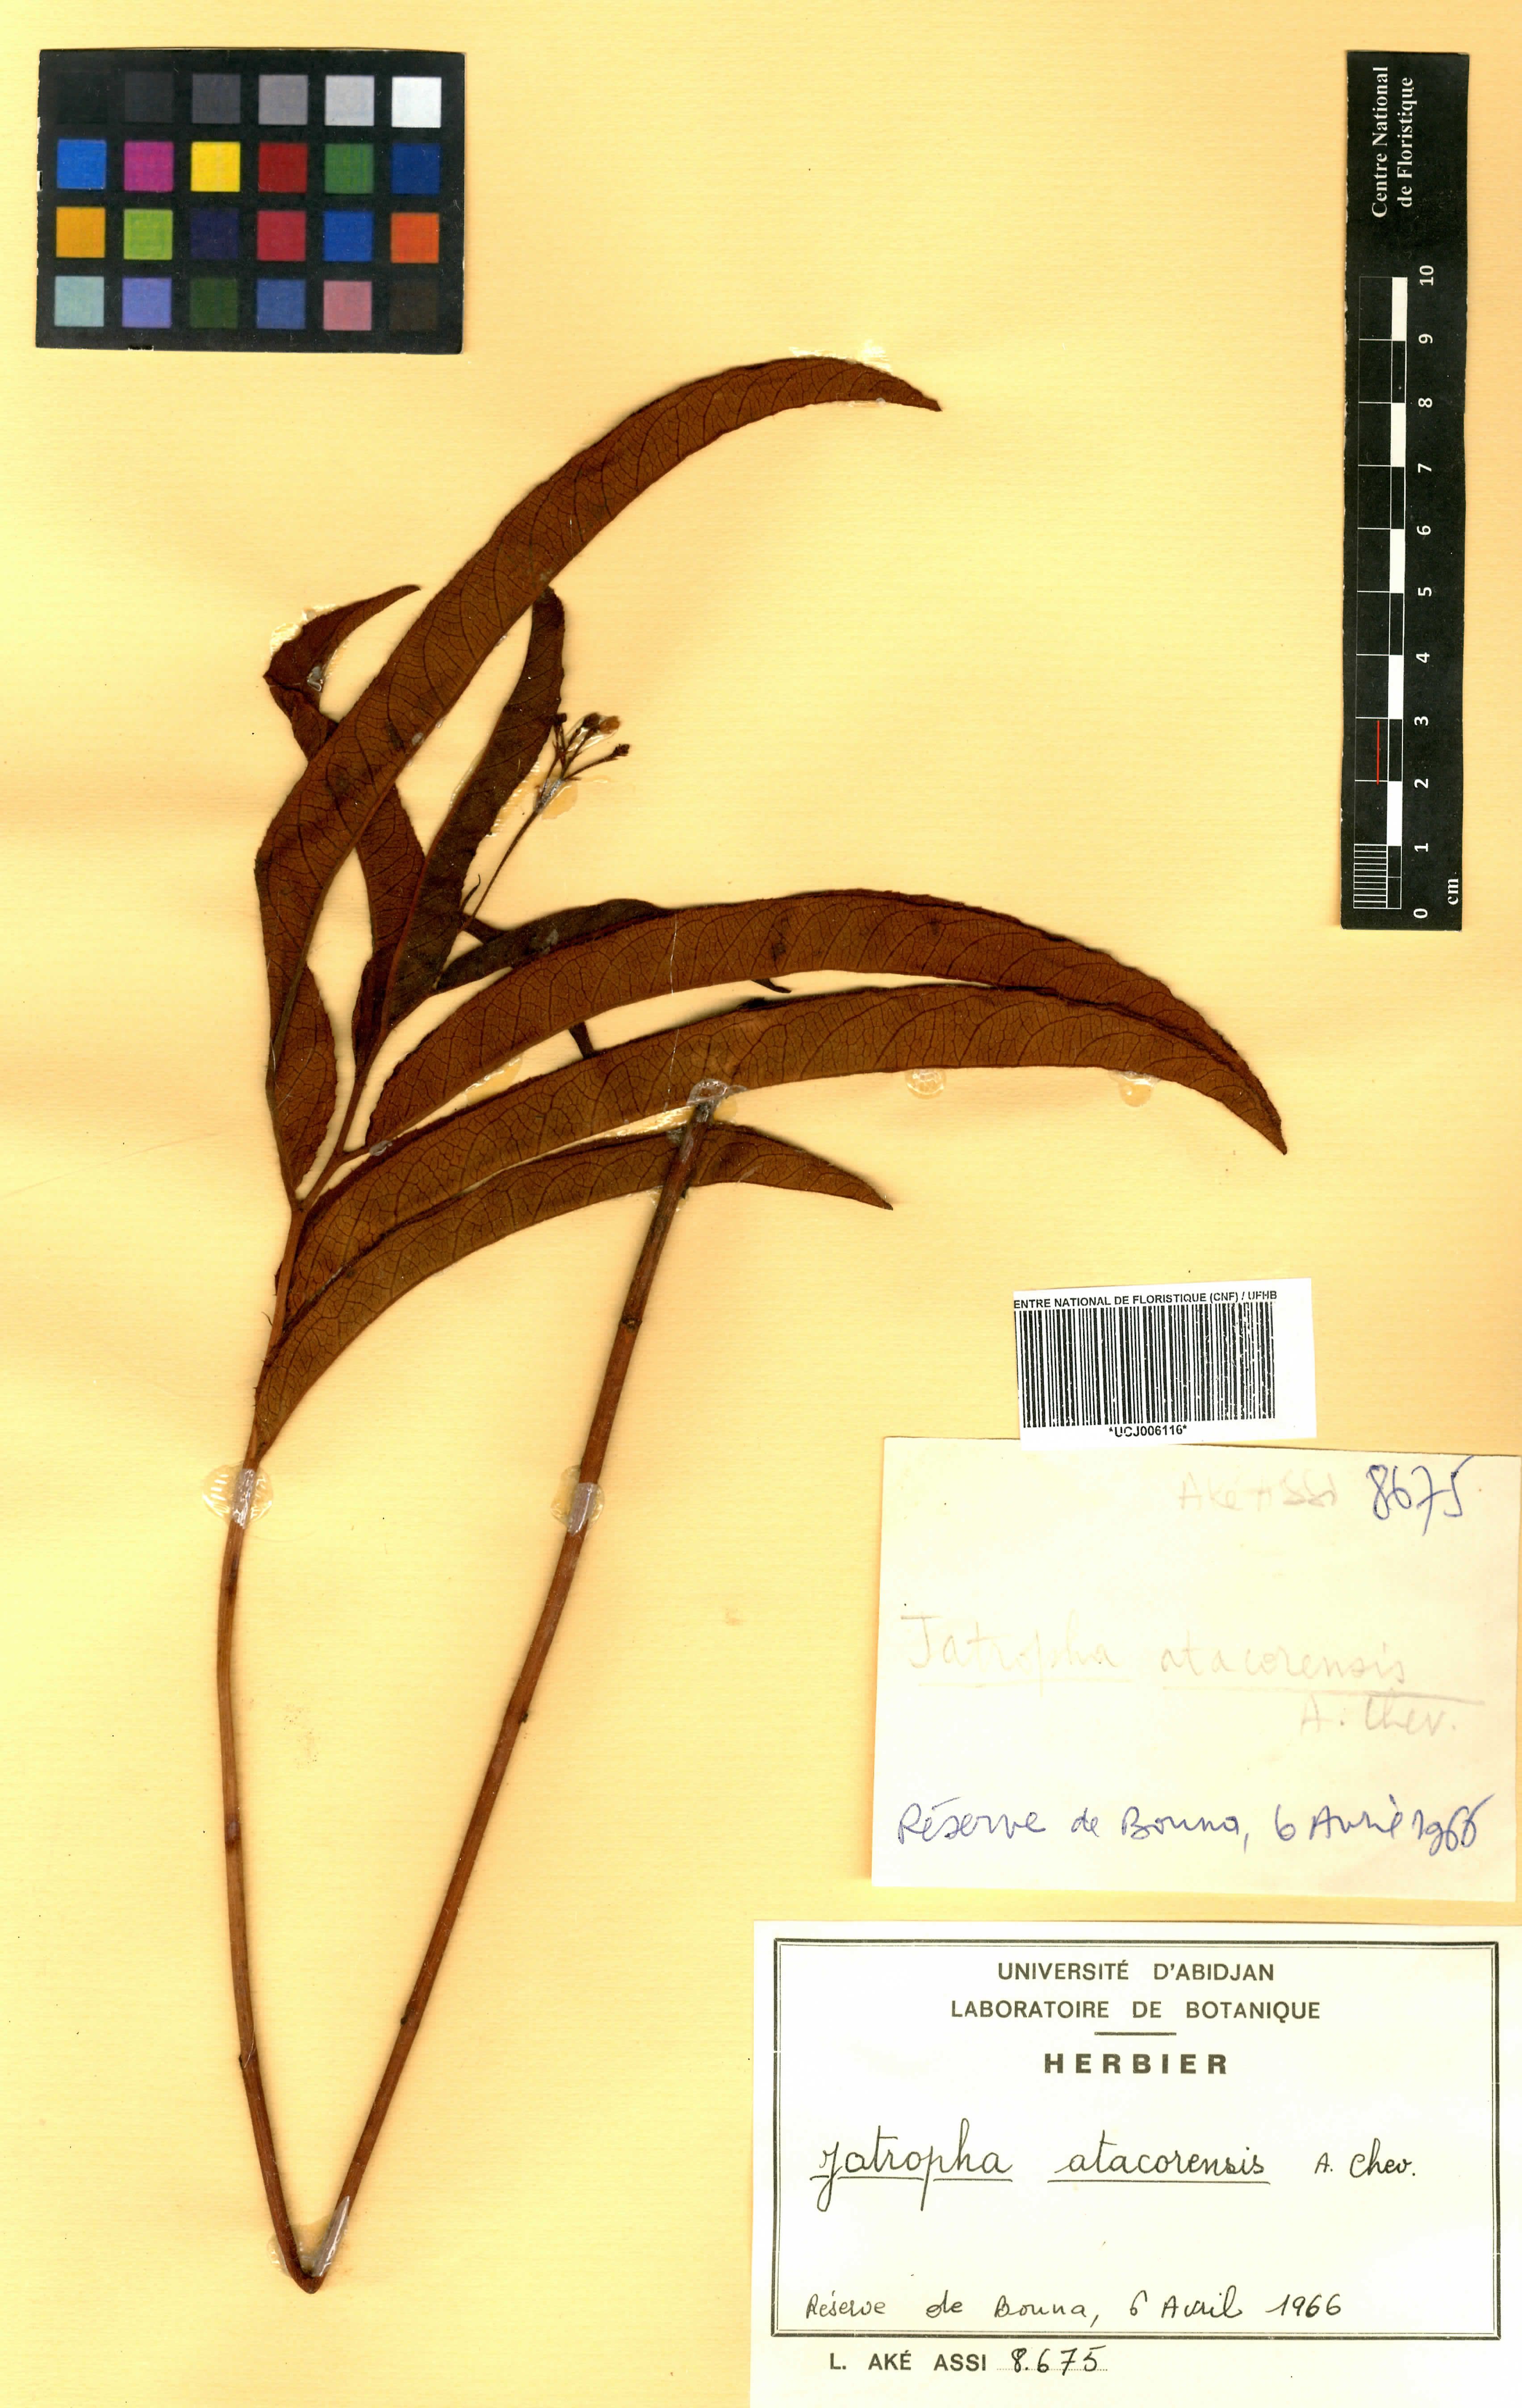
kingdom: Plantae
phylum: Tracheophyta
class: Magnoliopsida
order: Malpighiales
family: Euphorbiaceae
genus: Jatropha
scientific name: Jatropha atacorensis
